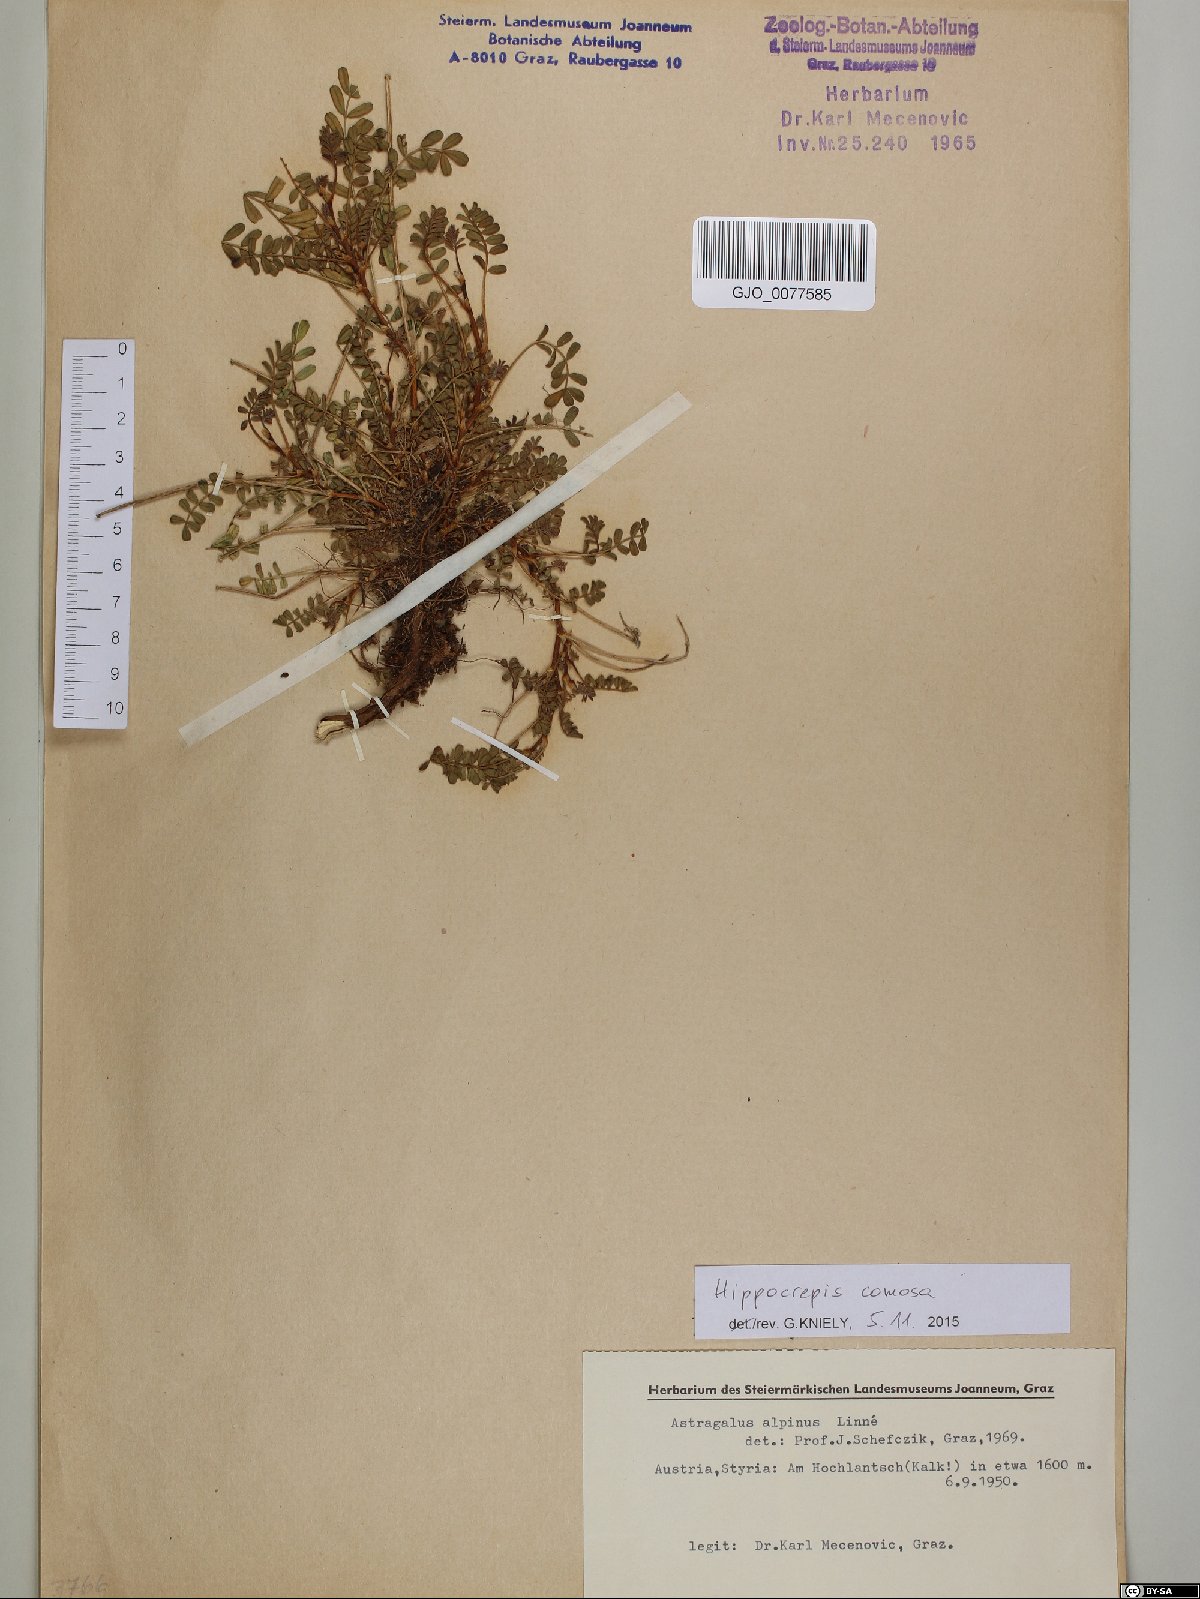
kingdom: Plantae
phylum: Tracheophyta
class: Magnoliopsida
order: Fabales
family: Fabaceae
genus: Hippocrepis
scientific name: Hippocrepis comosa
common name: Horseshoe vetch
